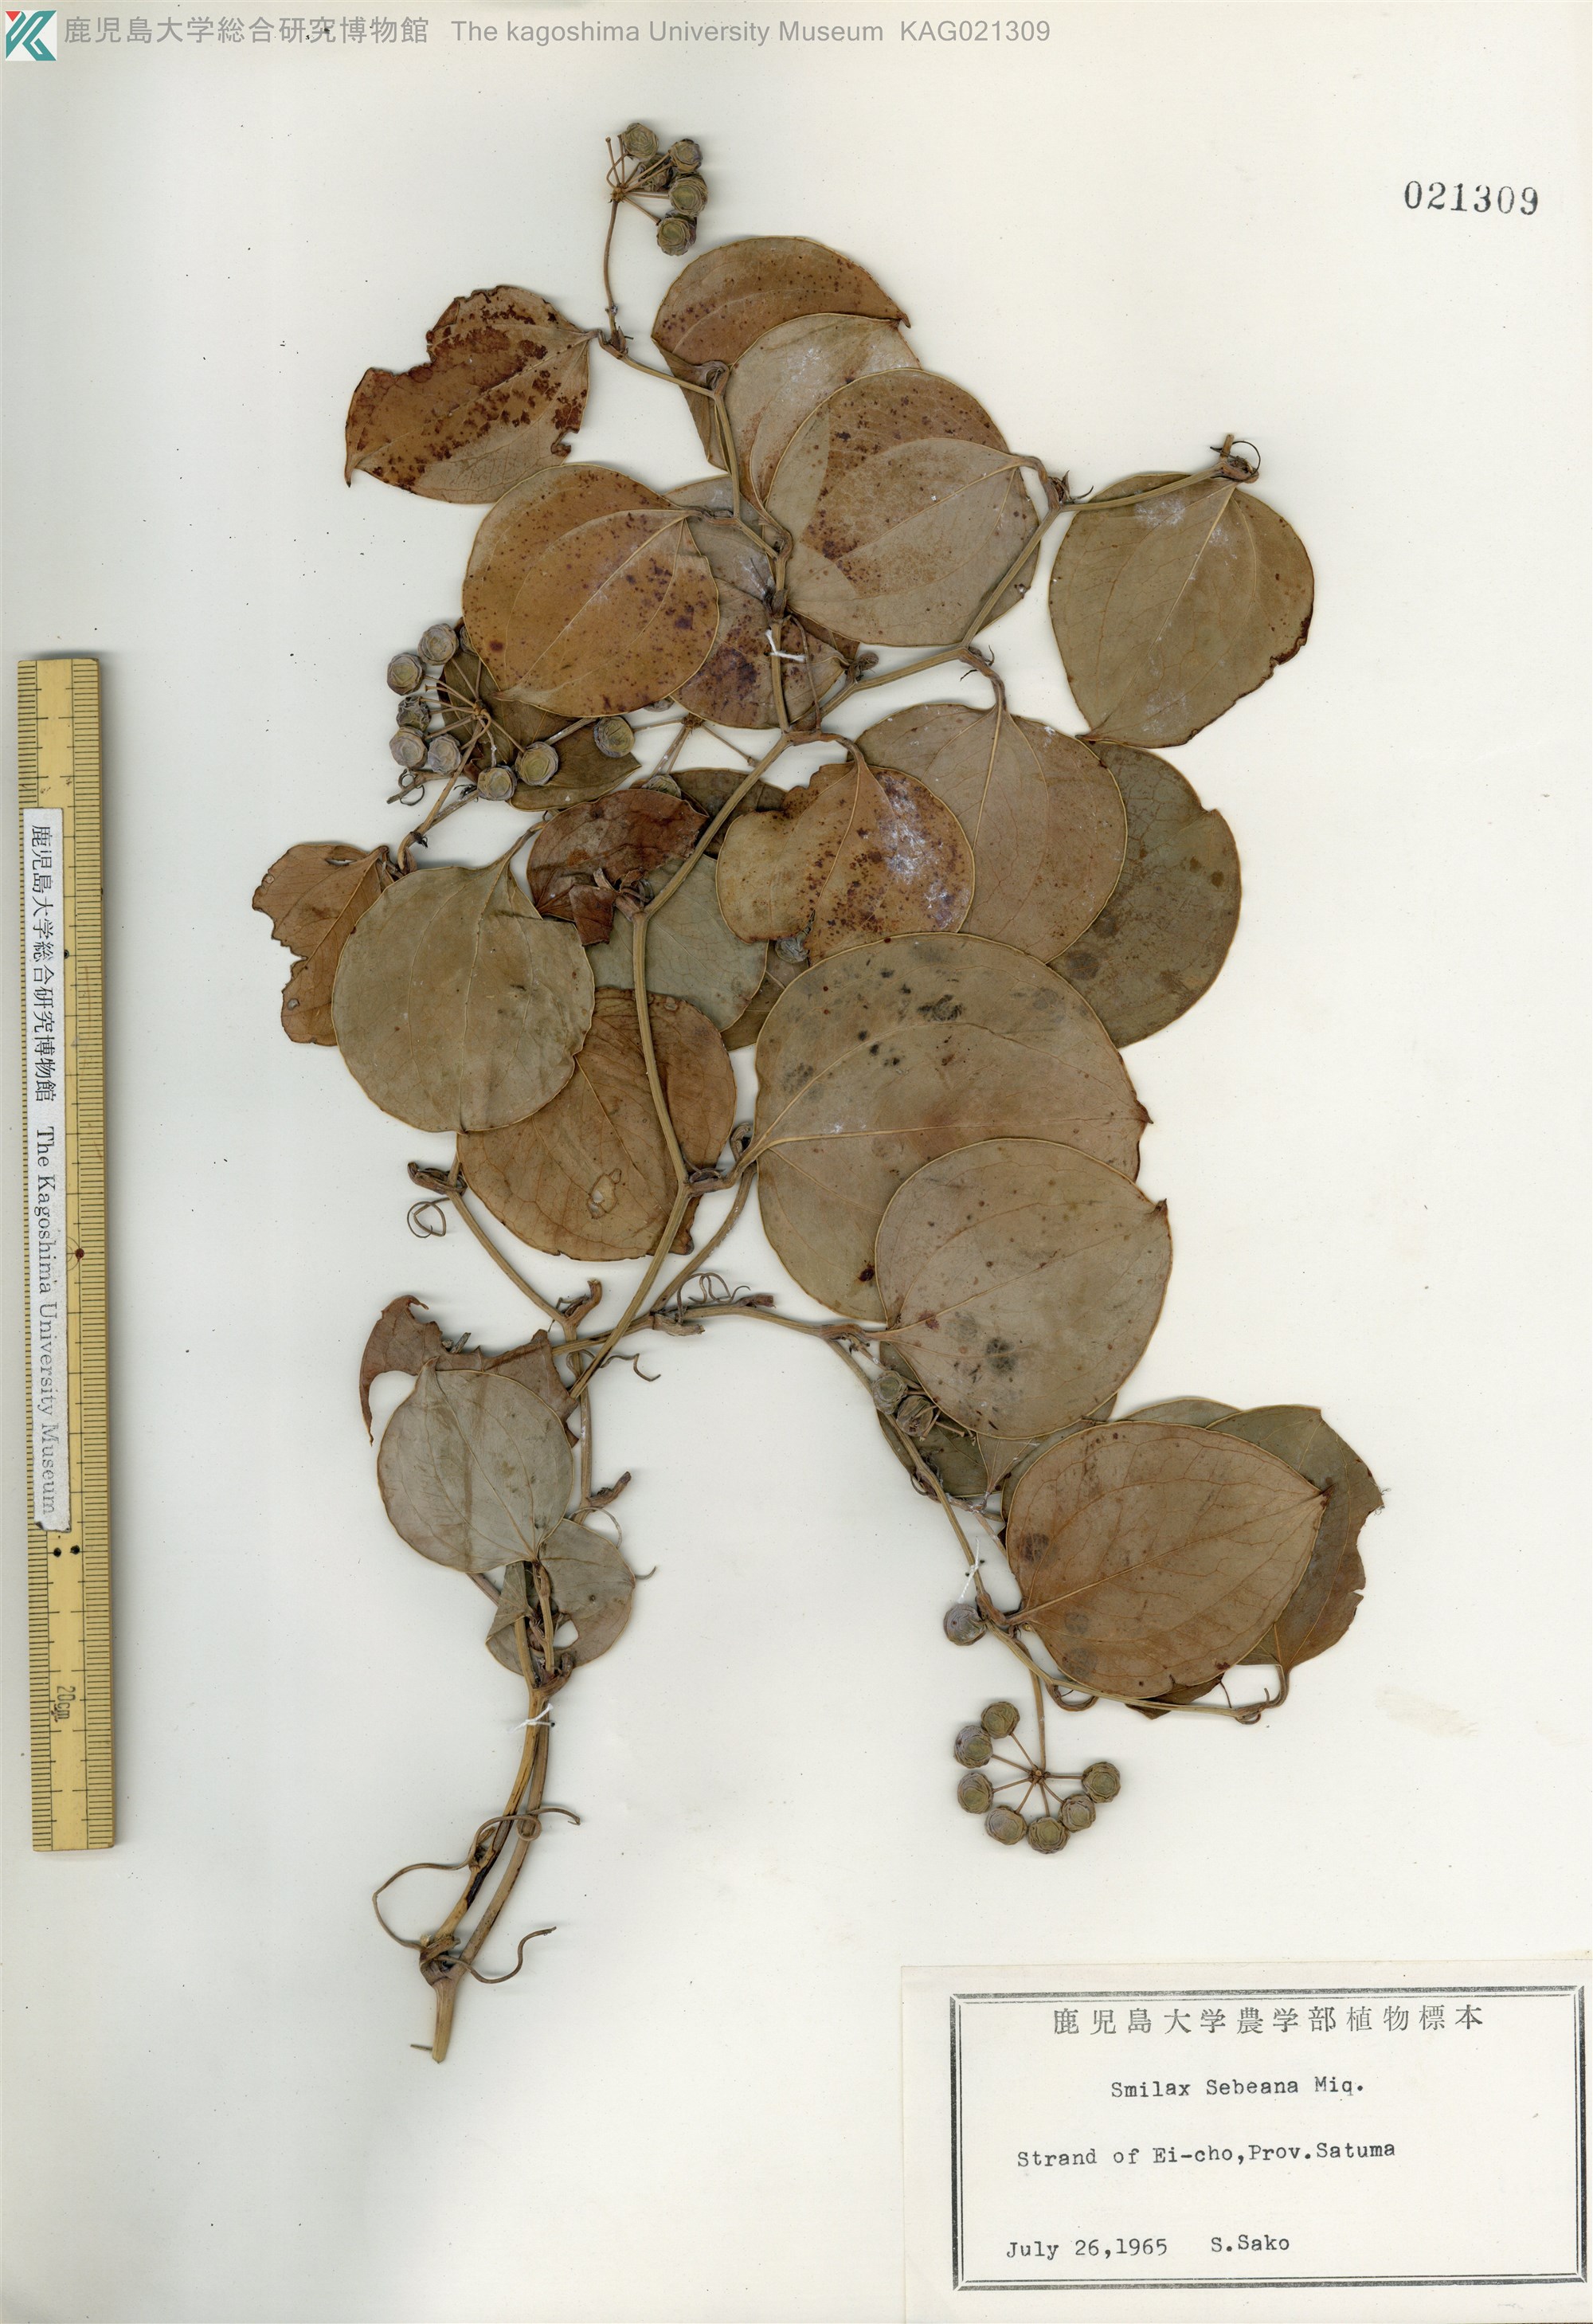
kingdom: Plantae
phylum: Tracheophyta
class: Liliopsida
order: Liliales
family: Smilacaceae
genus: Smilax
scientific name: Smilax sebeana
